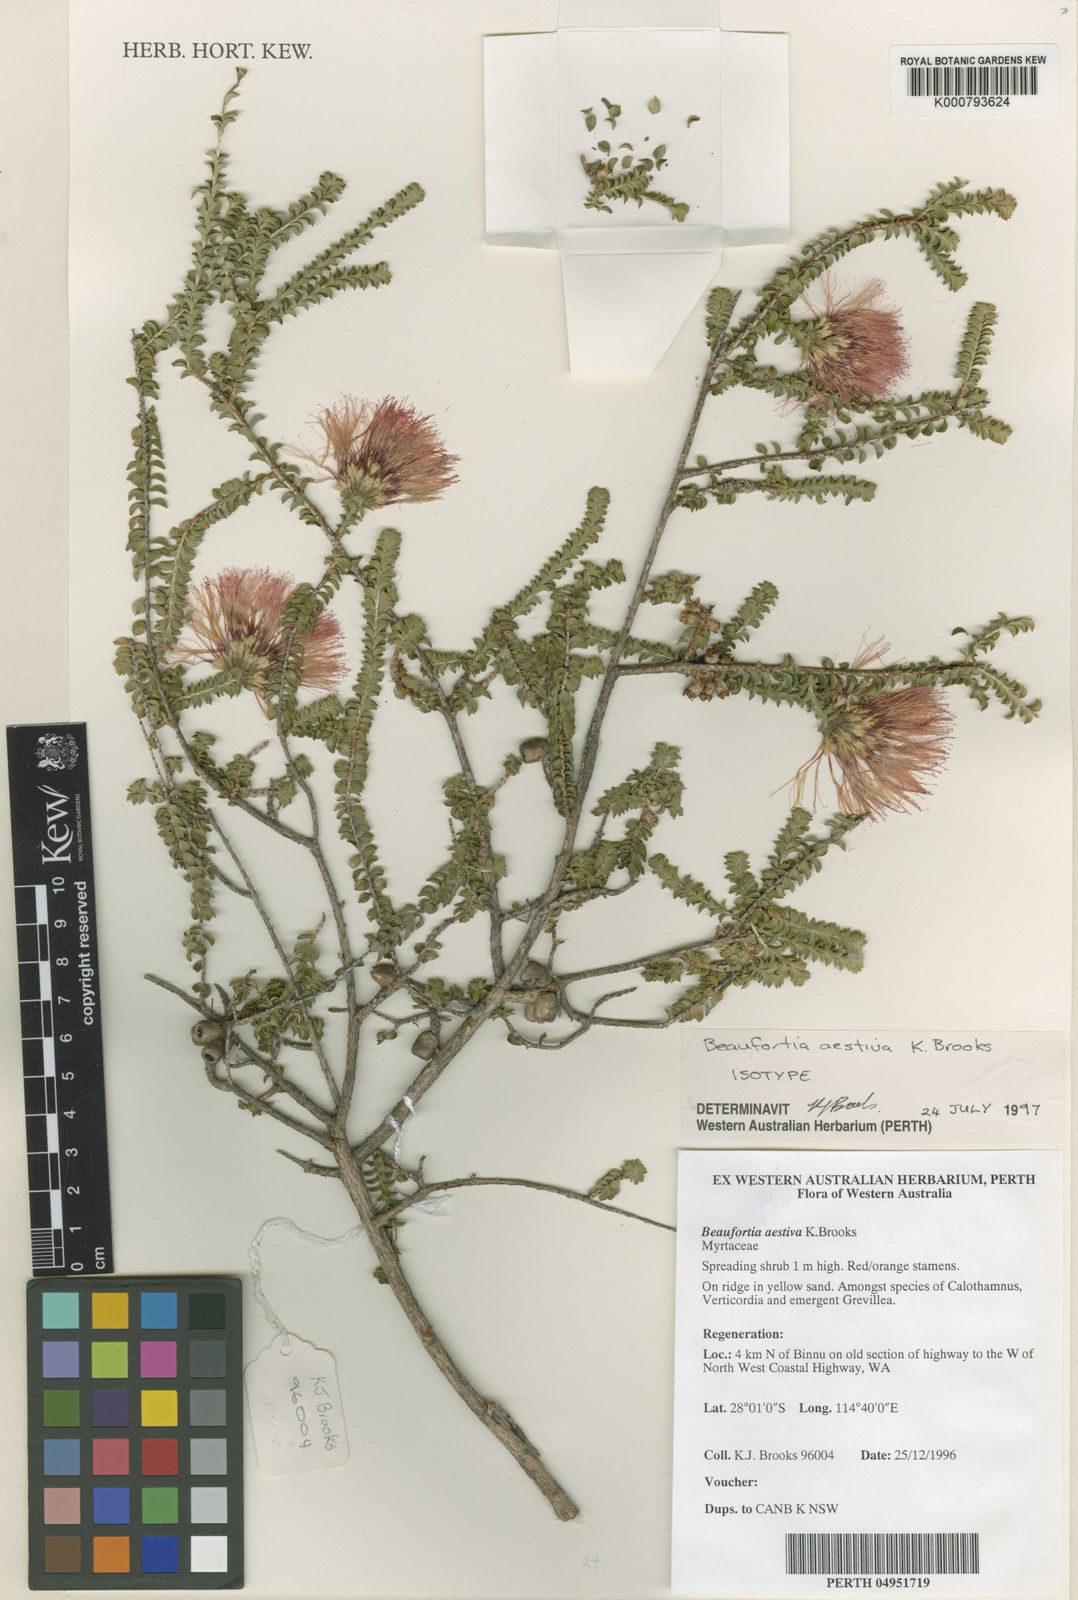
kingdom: Plantae
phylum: Tracheophyta
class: Magnoliopsida
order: Myrtales
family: Myrtaceae
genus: Melaleuca
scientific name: Melaleuca aestiva
